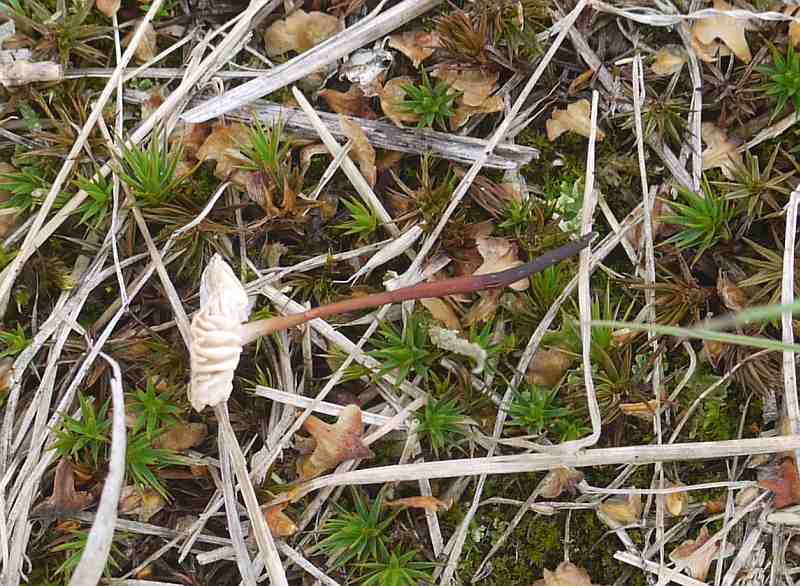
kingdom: Fungi
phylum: Basidiomycota
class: Agaricomycetes
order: Agaricales
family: Omphalotaceae
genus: Mycetinis
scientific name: Mycetinis scorodonius
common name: lille løghat
